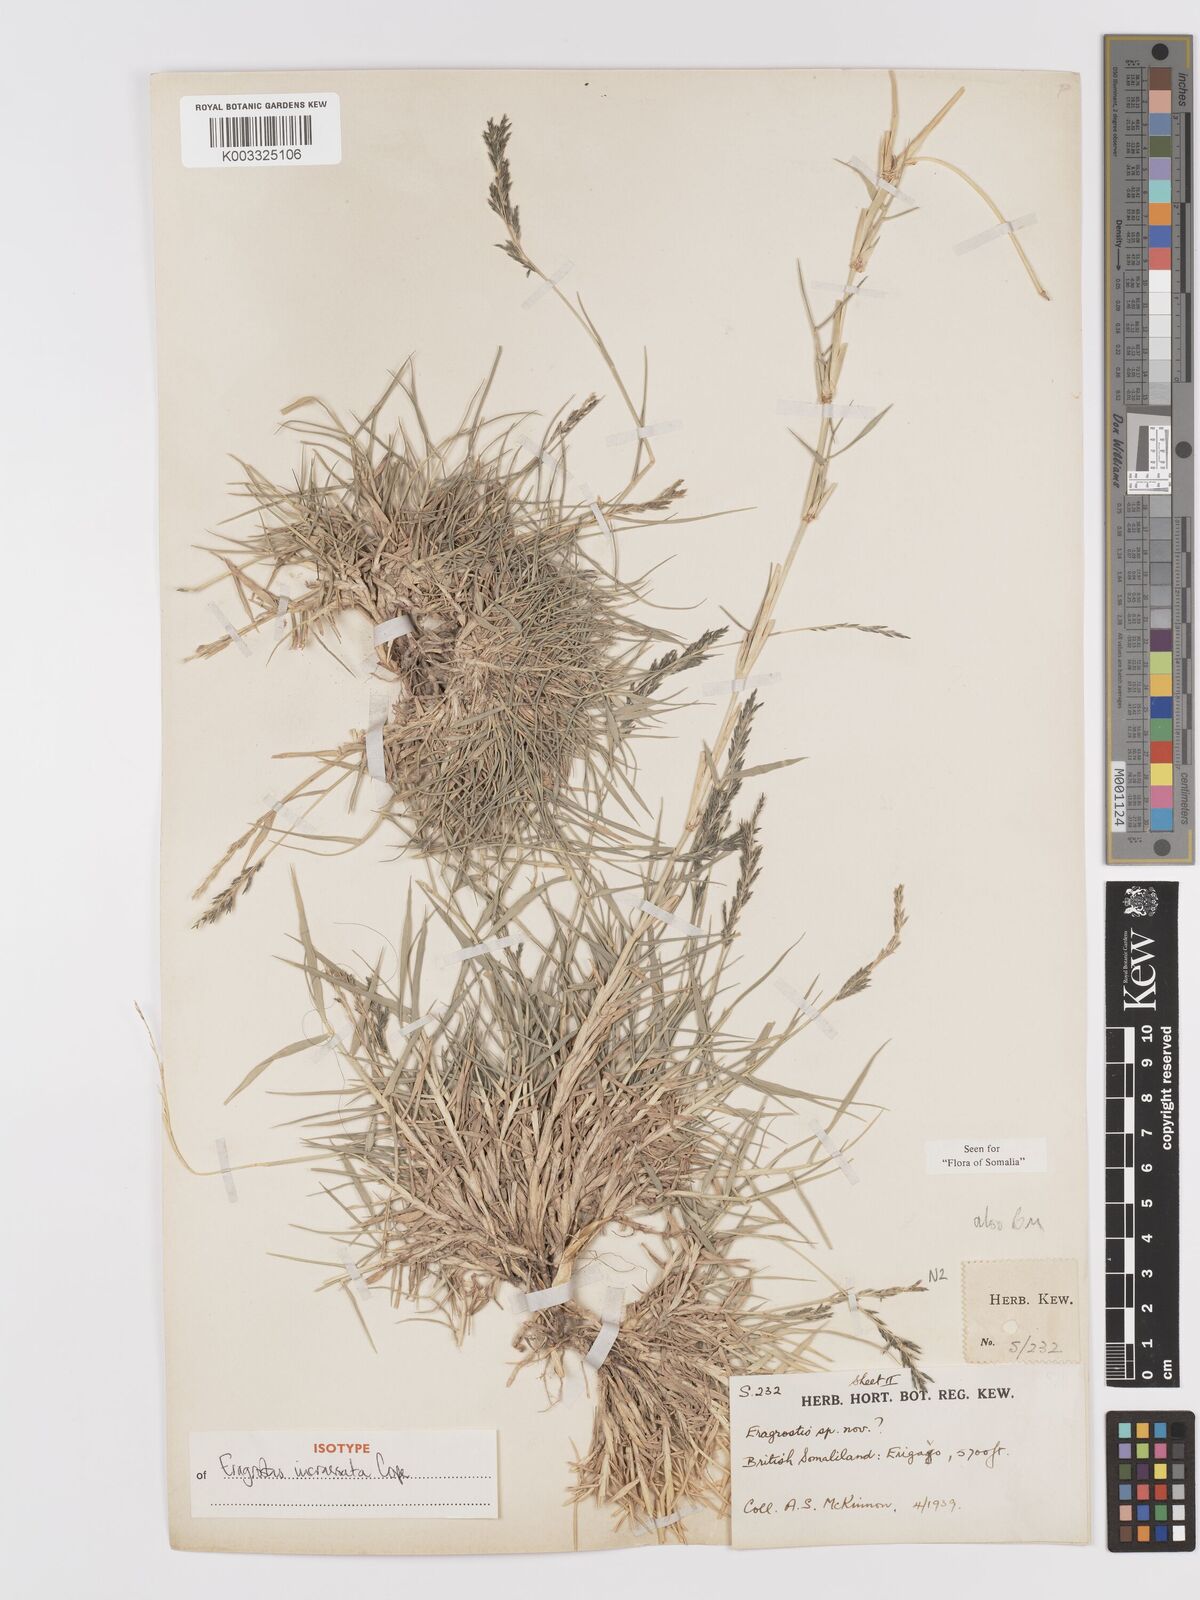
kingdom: Plantae
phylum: Tracheophyta
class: Liliopsida
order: Poales
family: Poaceae
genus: Eragrostis
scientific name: Eragrostis incrassata
